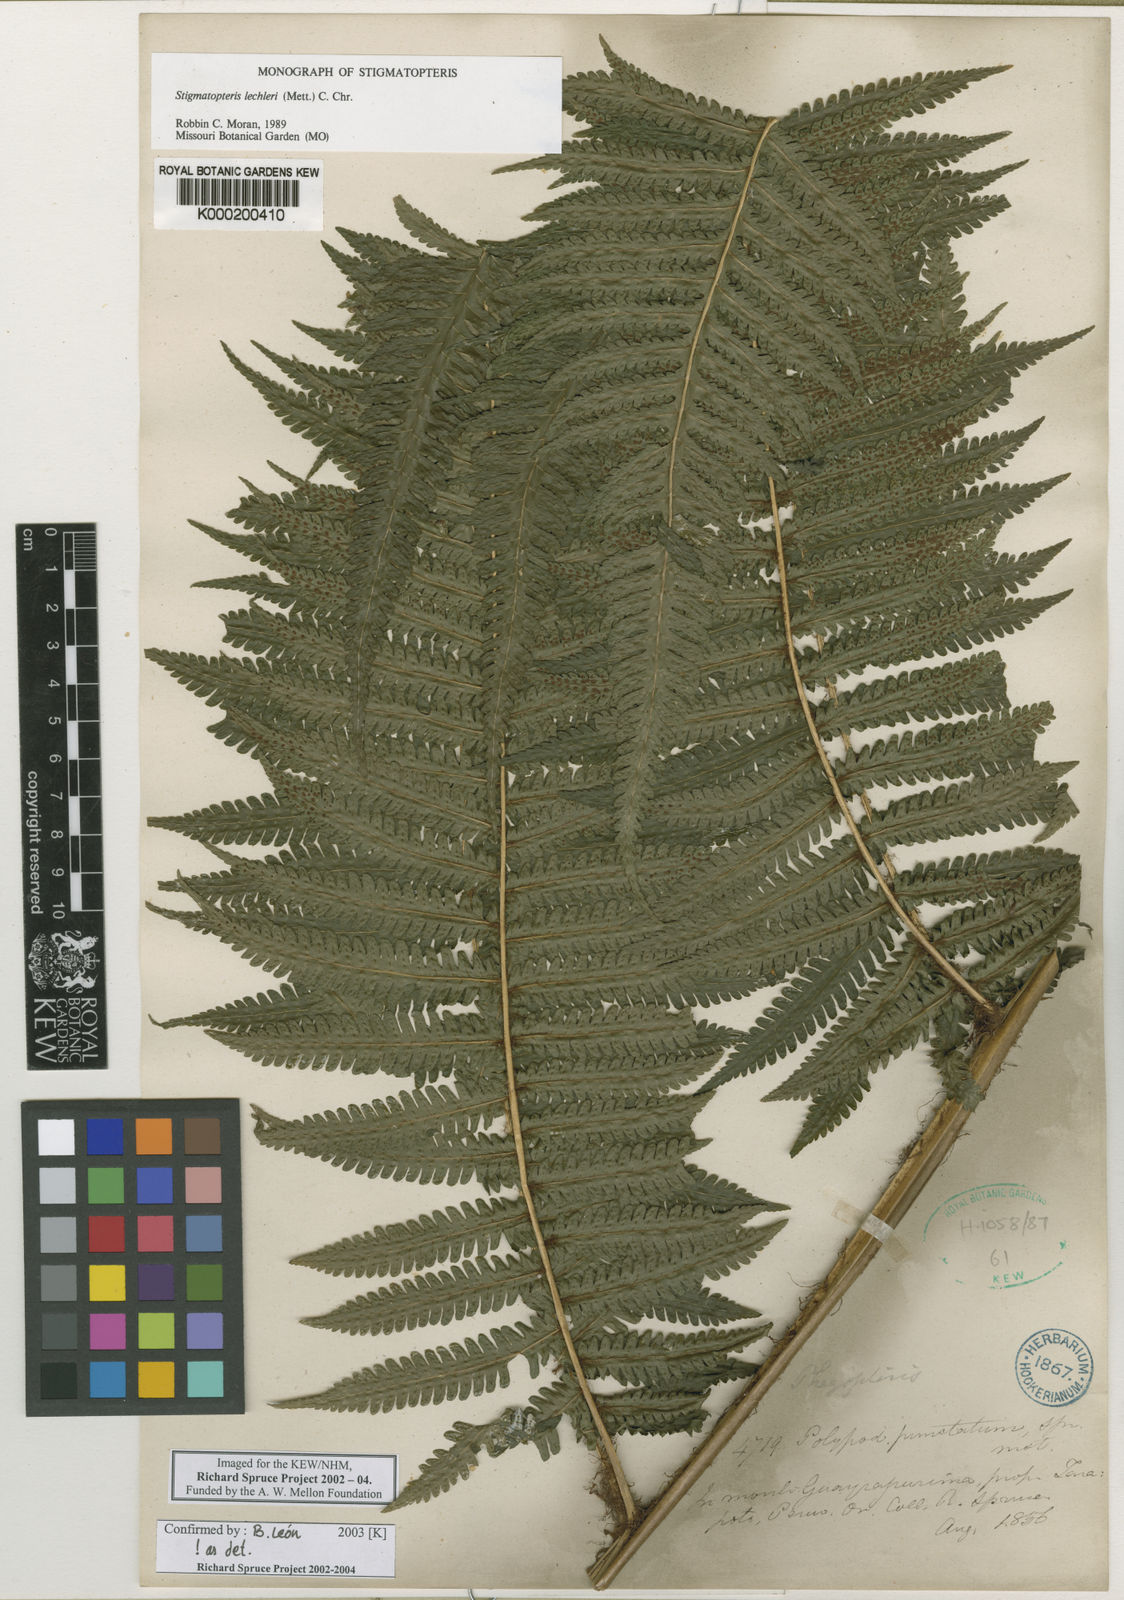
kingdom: Plantae
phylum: Tracheophyta
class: Polypodiopsida
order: Polypodiales
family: Dryopteridaceae
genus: Stigmatopteris
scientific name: Stigmatopteris lechleri
